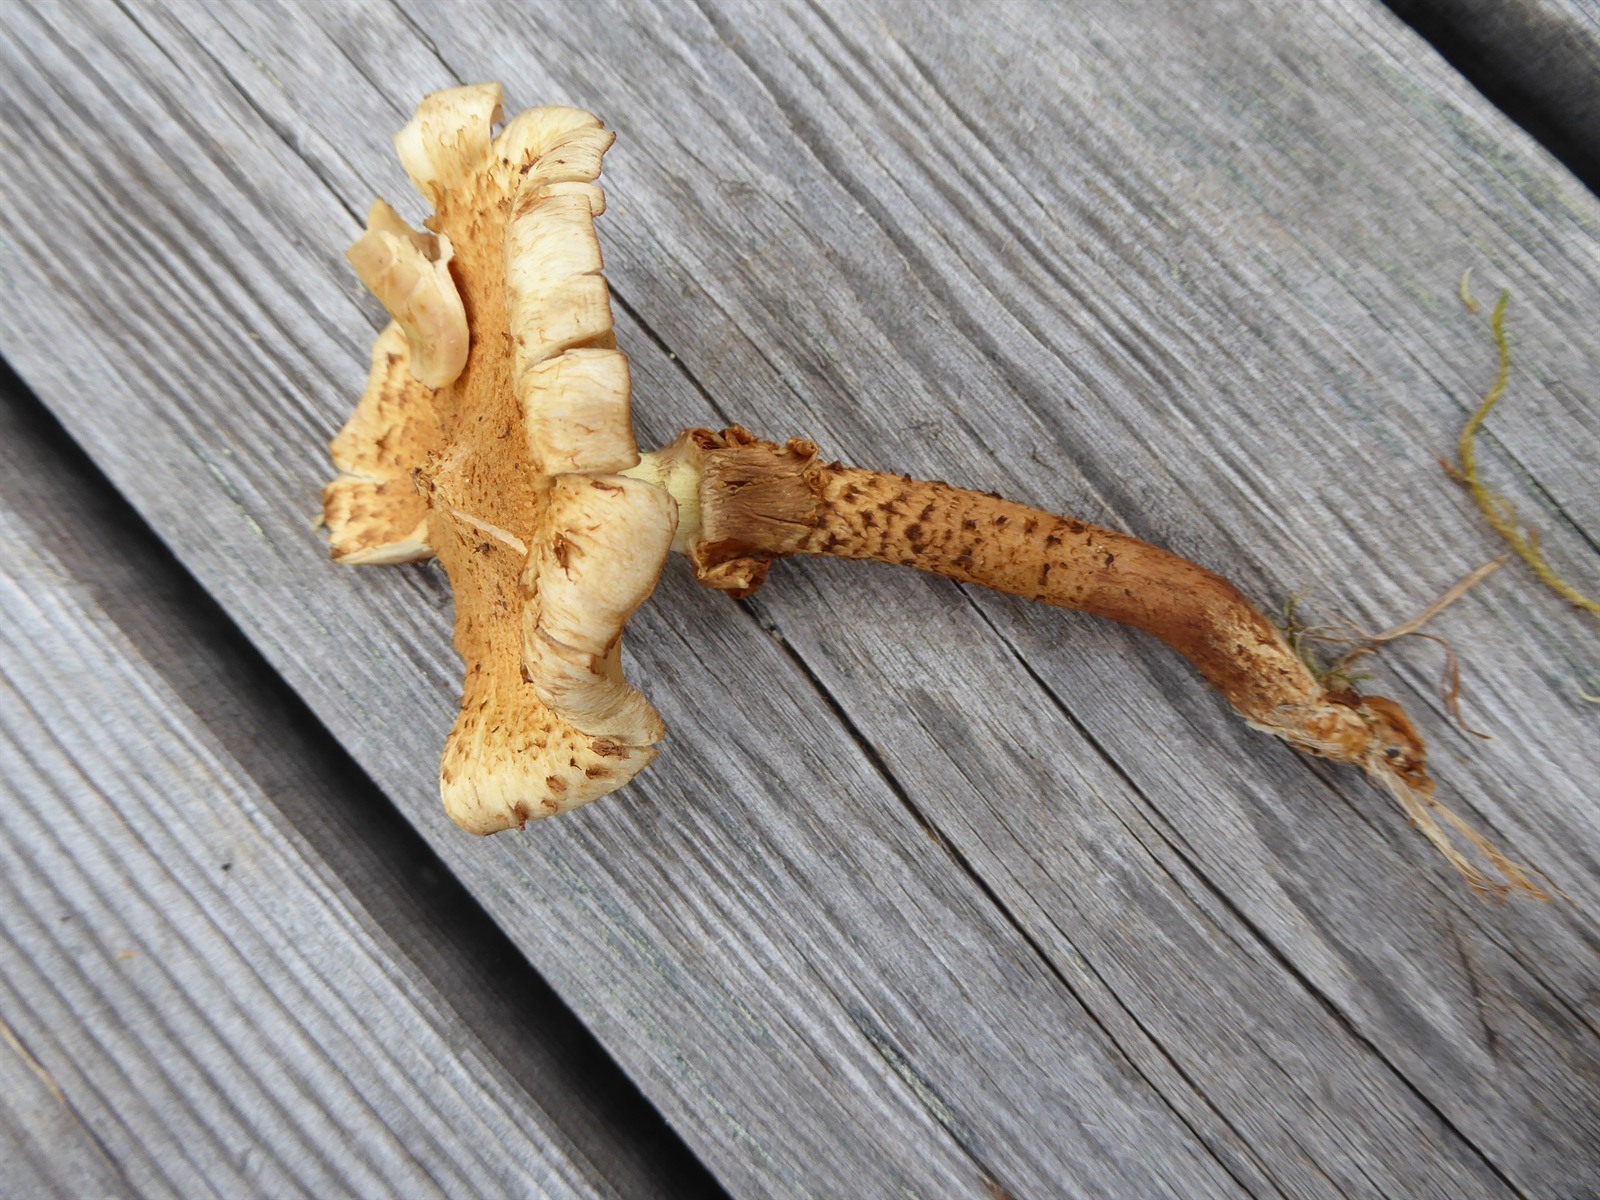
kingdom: Fungi
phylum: Basidiomycota
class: Agaricomycetes
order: Agaricales
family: Strophariaceae
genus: Pholiota
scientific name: Pholiota lundbergii
